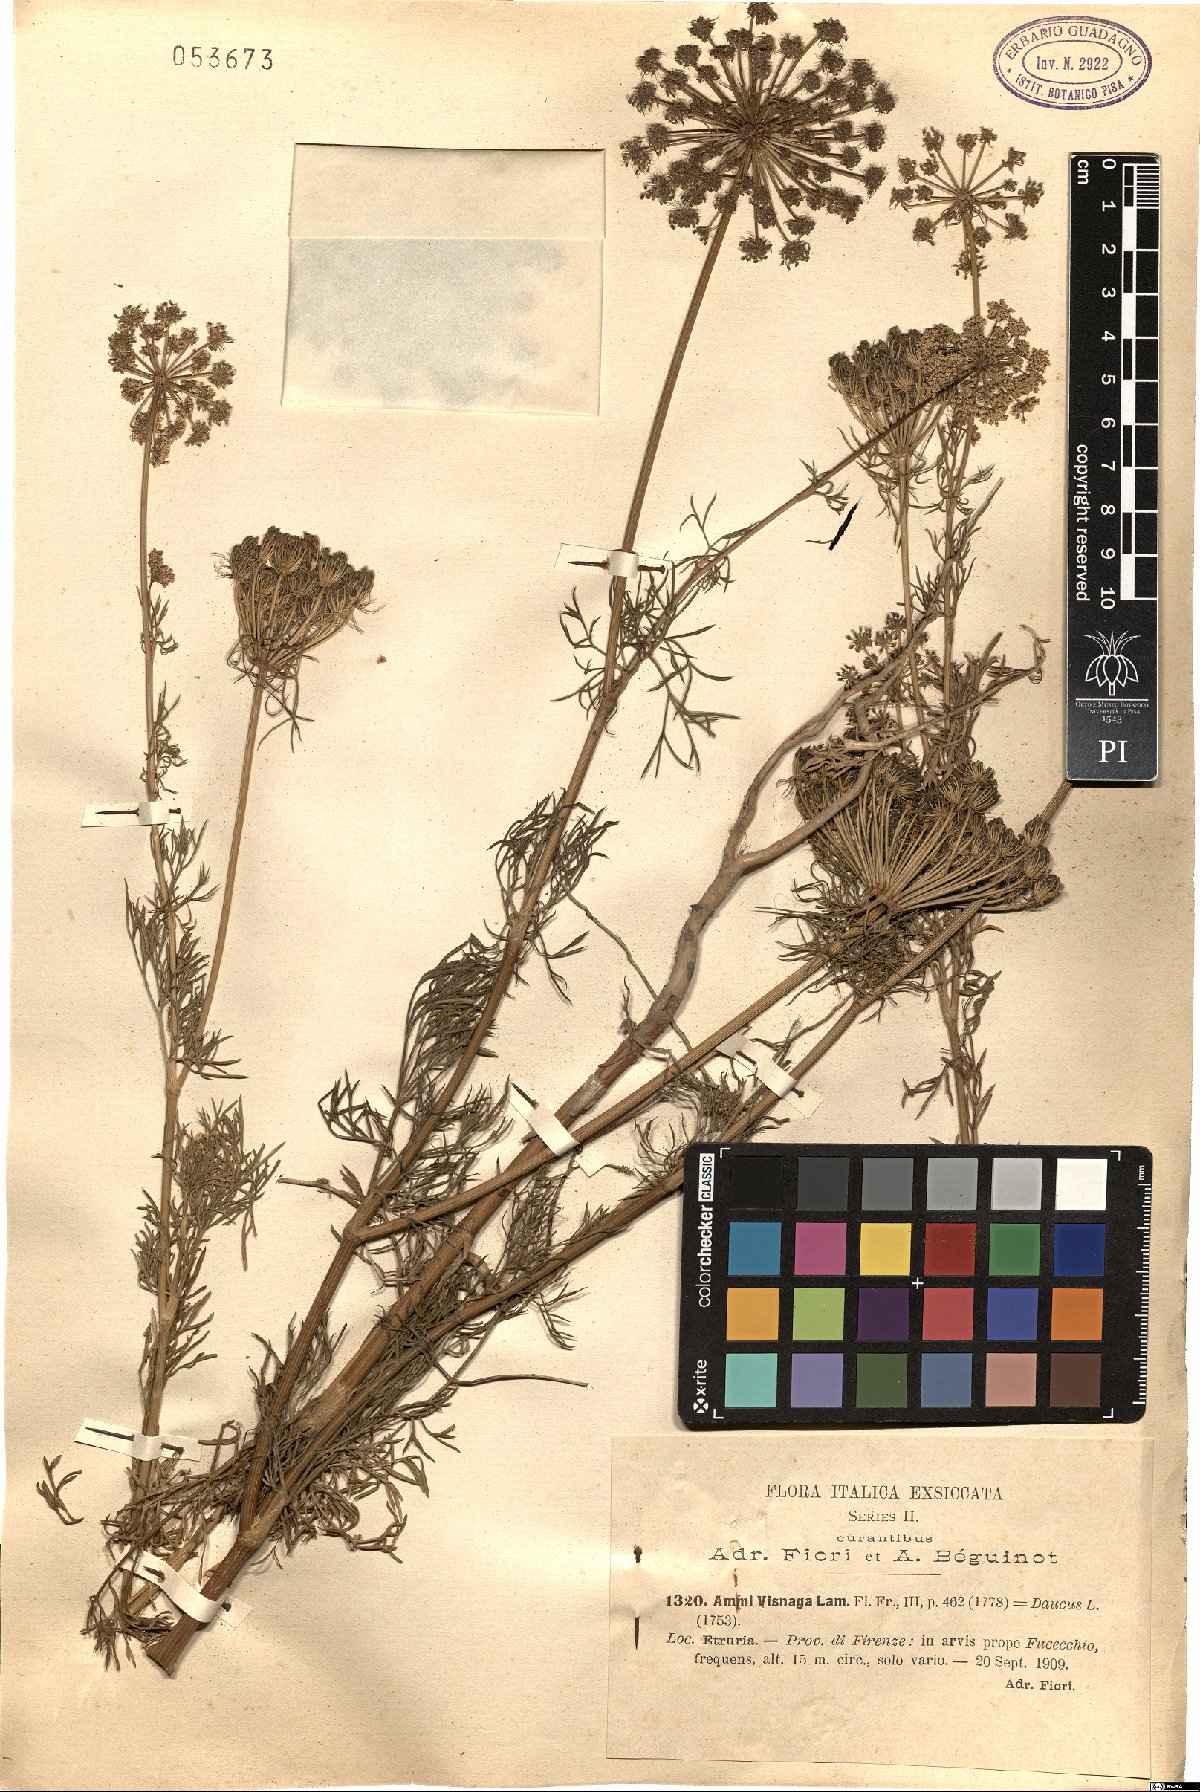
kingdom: Plantae
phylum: Tracheophyta
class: Magnoliopsida
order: Apiales
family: Apiaceae
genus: Visnaga
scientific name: Visnaga daucoides
